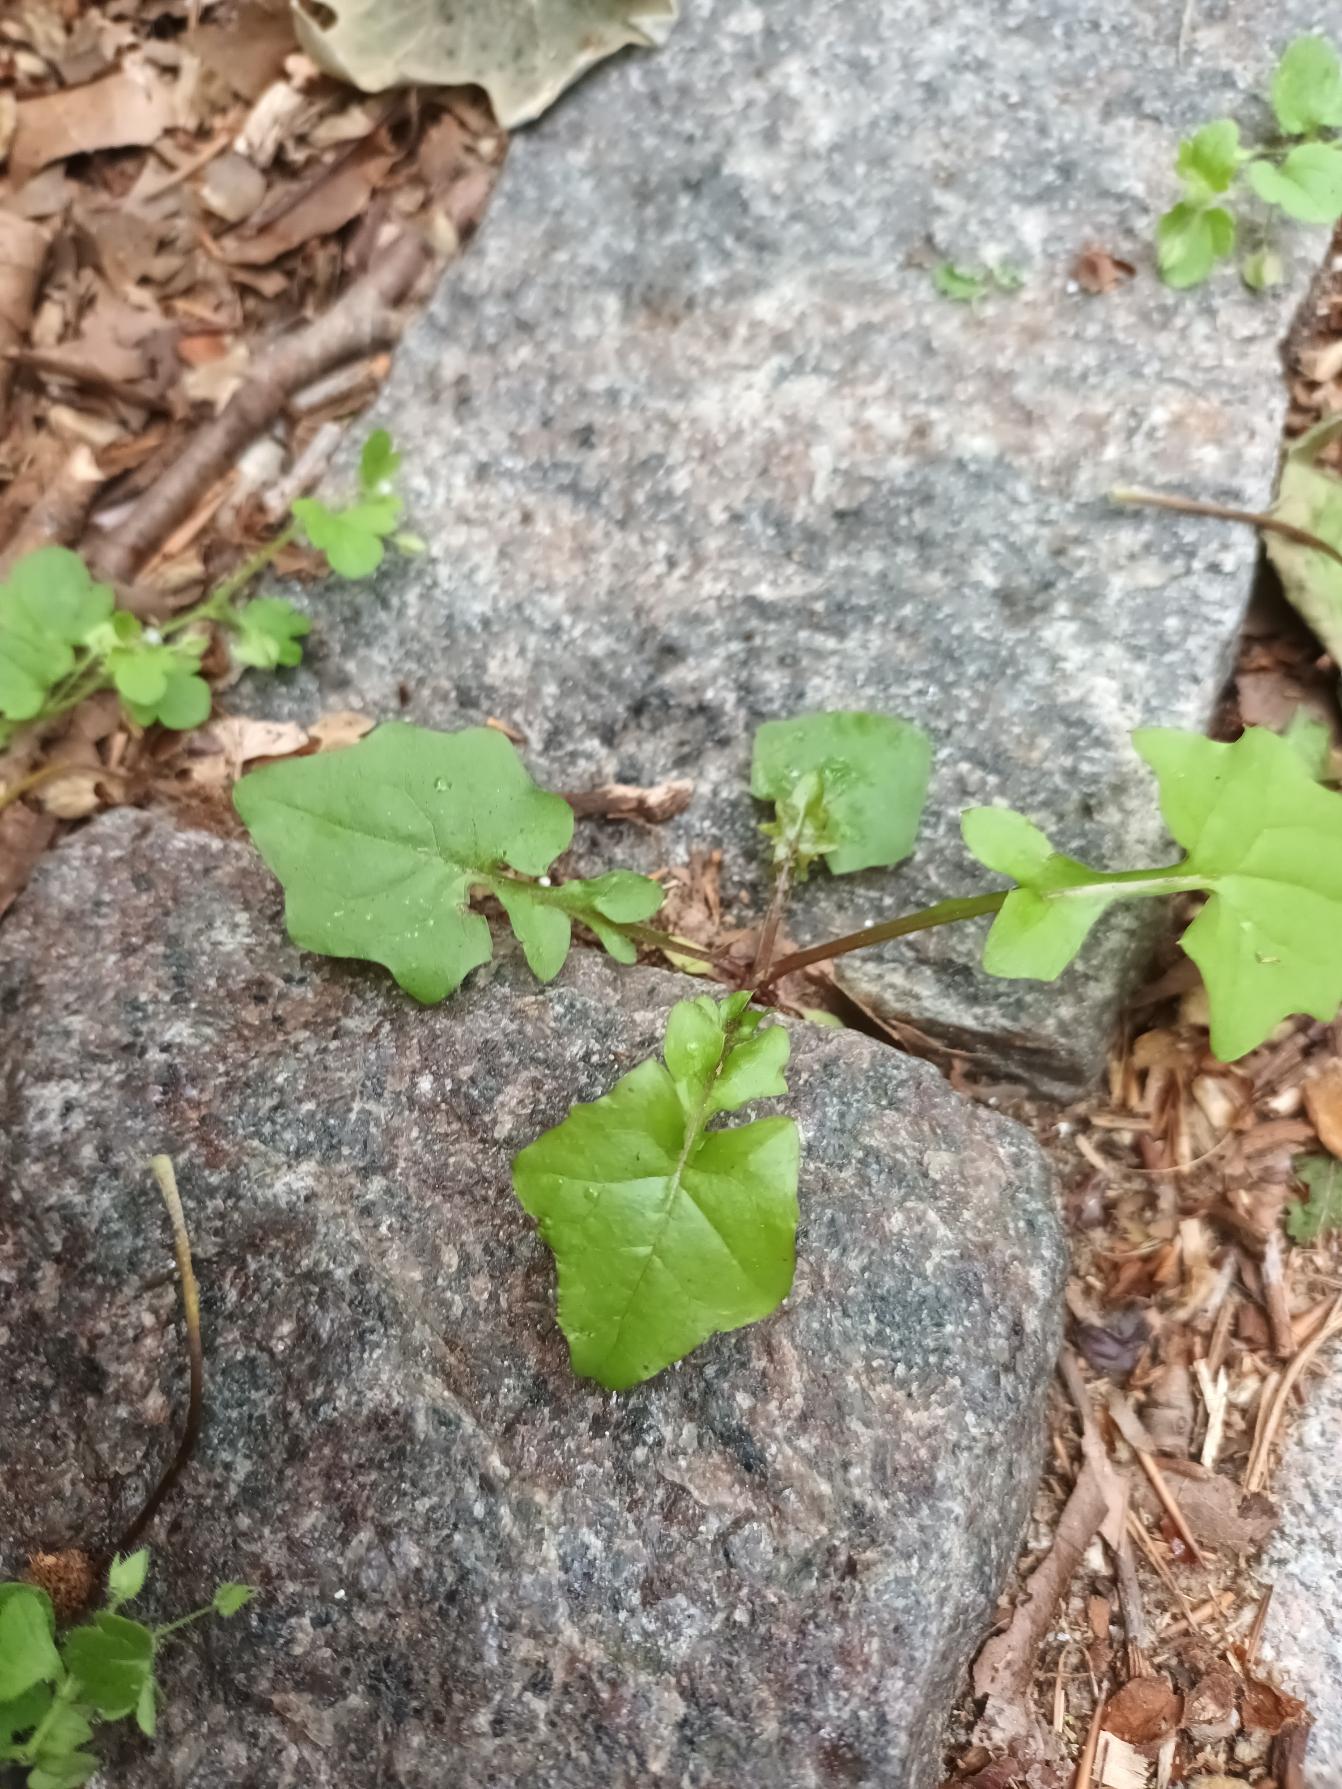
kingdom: Plantae
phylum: Tracheophyta
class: Magnoliopsida
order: Asterales
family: Asteraceae
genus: Mycelis
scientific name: Mycelis muralis
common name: Skov-salat
